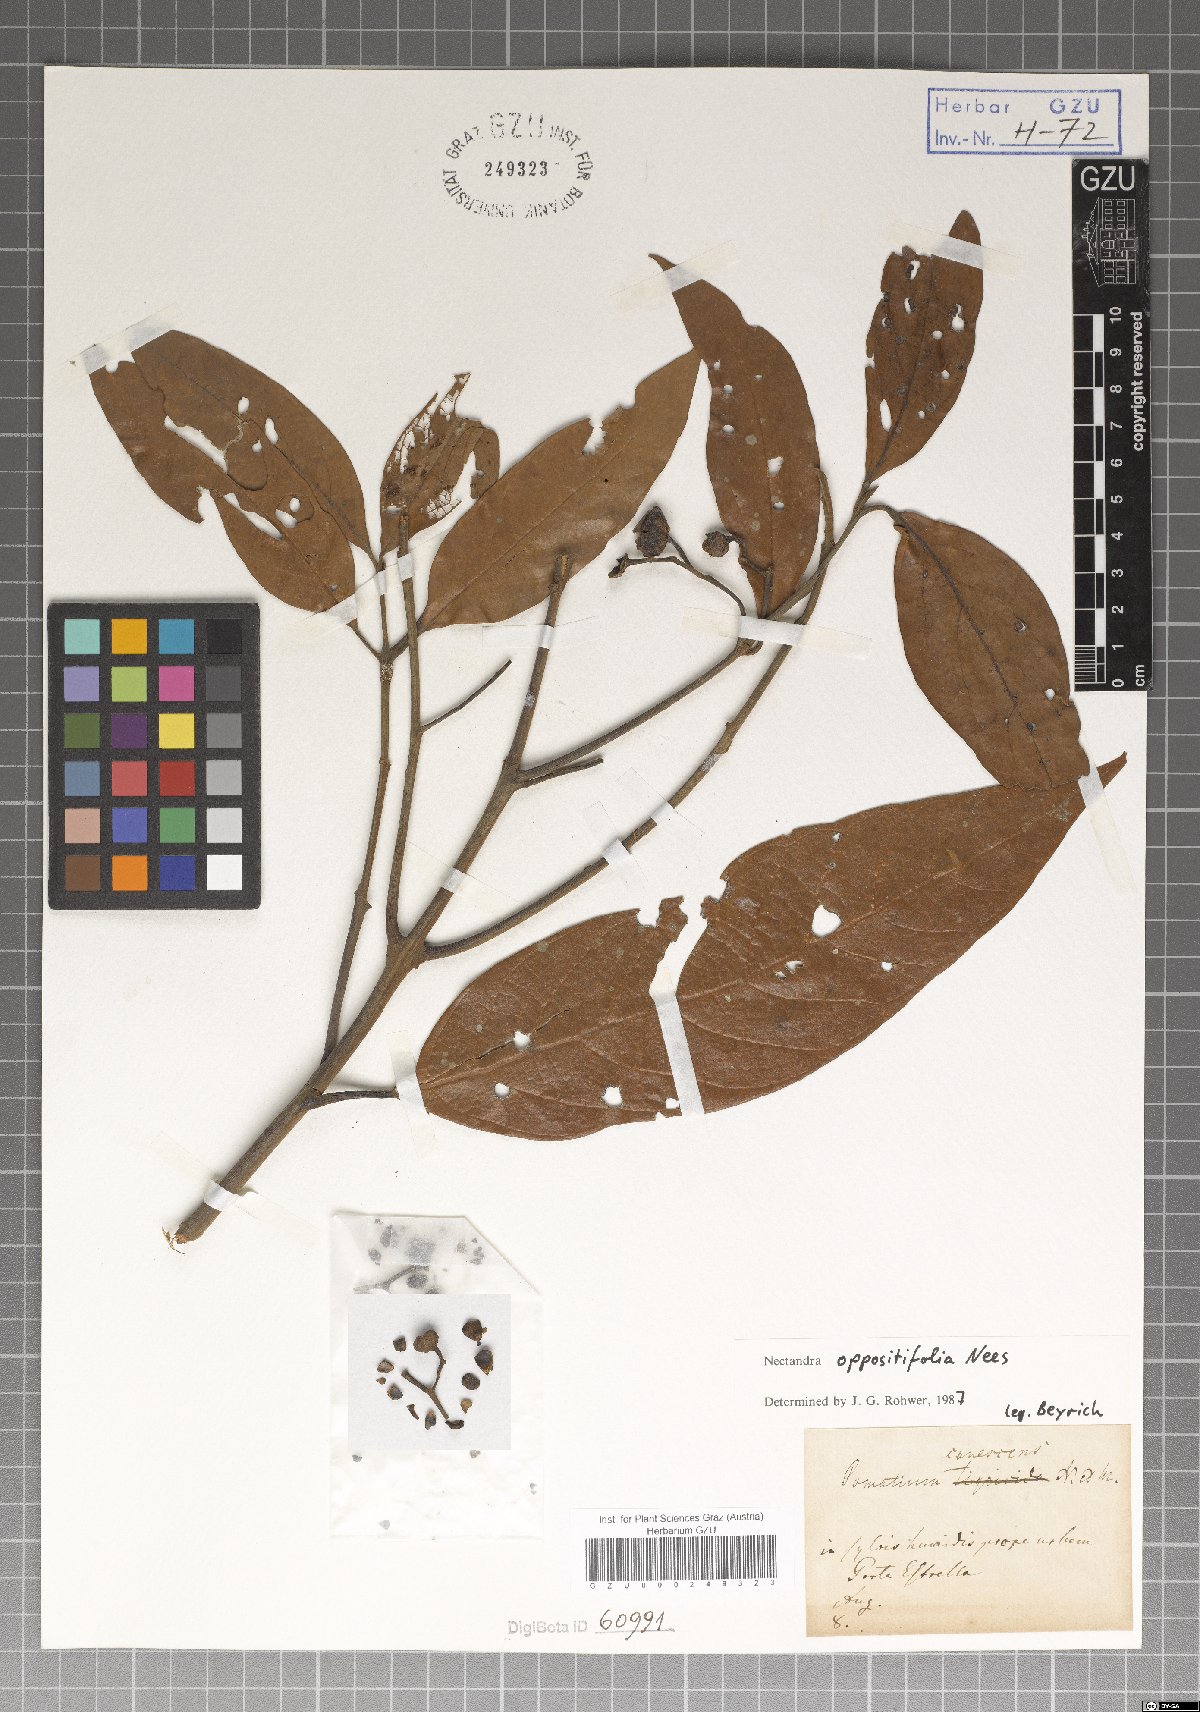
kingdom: Plantae
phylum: Tracheophyta
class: Magnoliopsida
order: Laurales
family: Lauraceae
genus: Nectandra
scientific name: Nectandra oppositifolia
